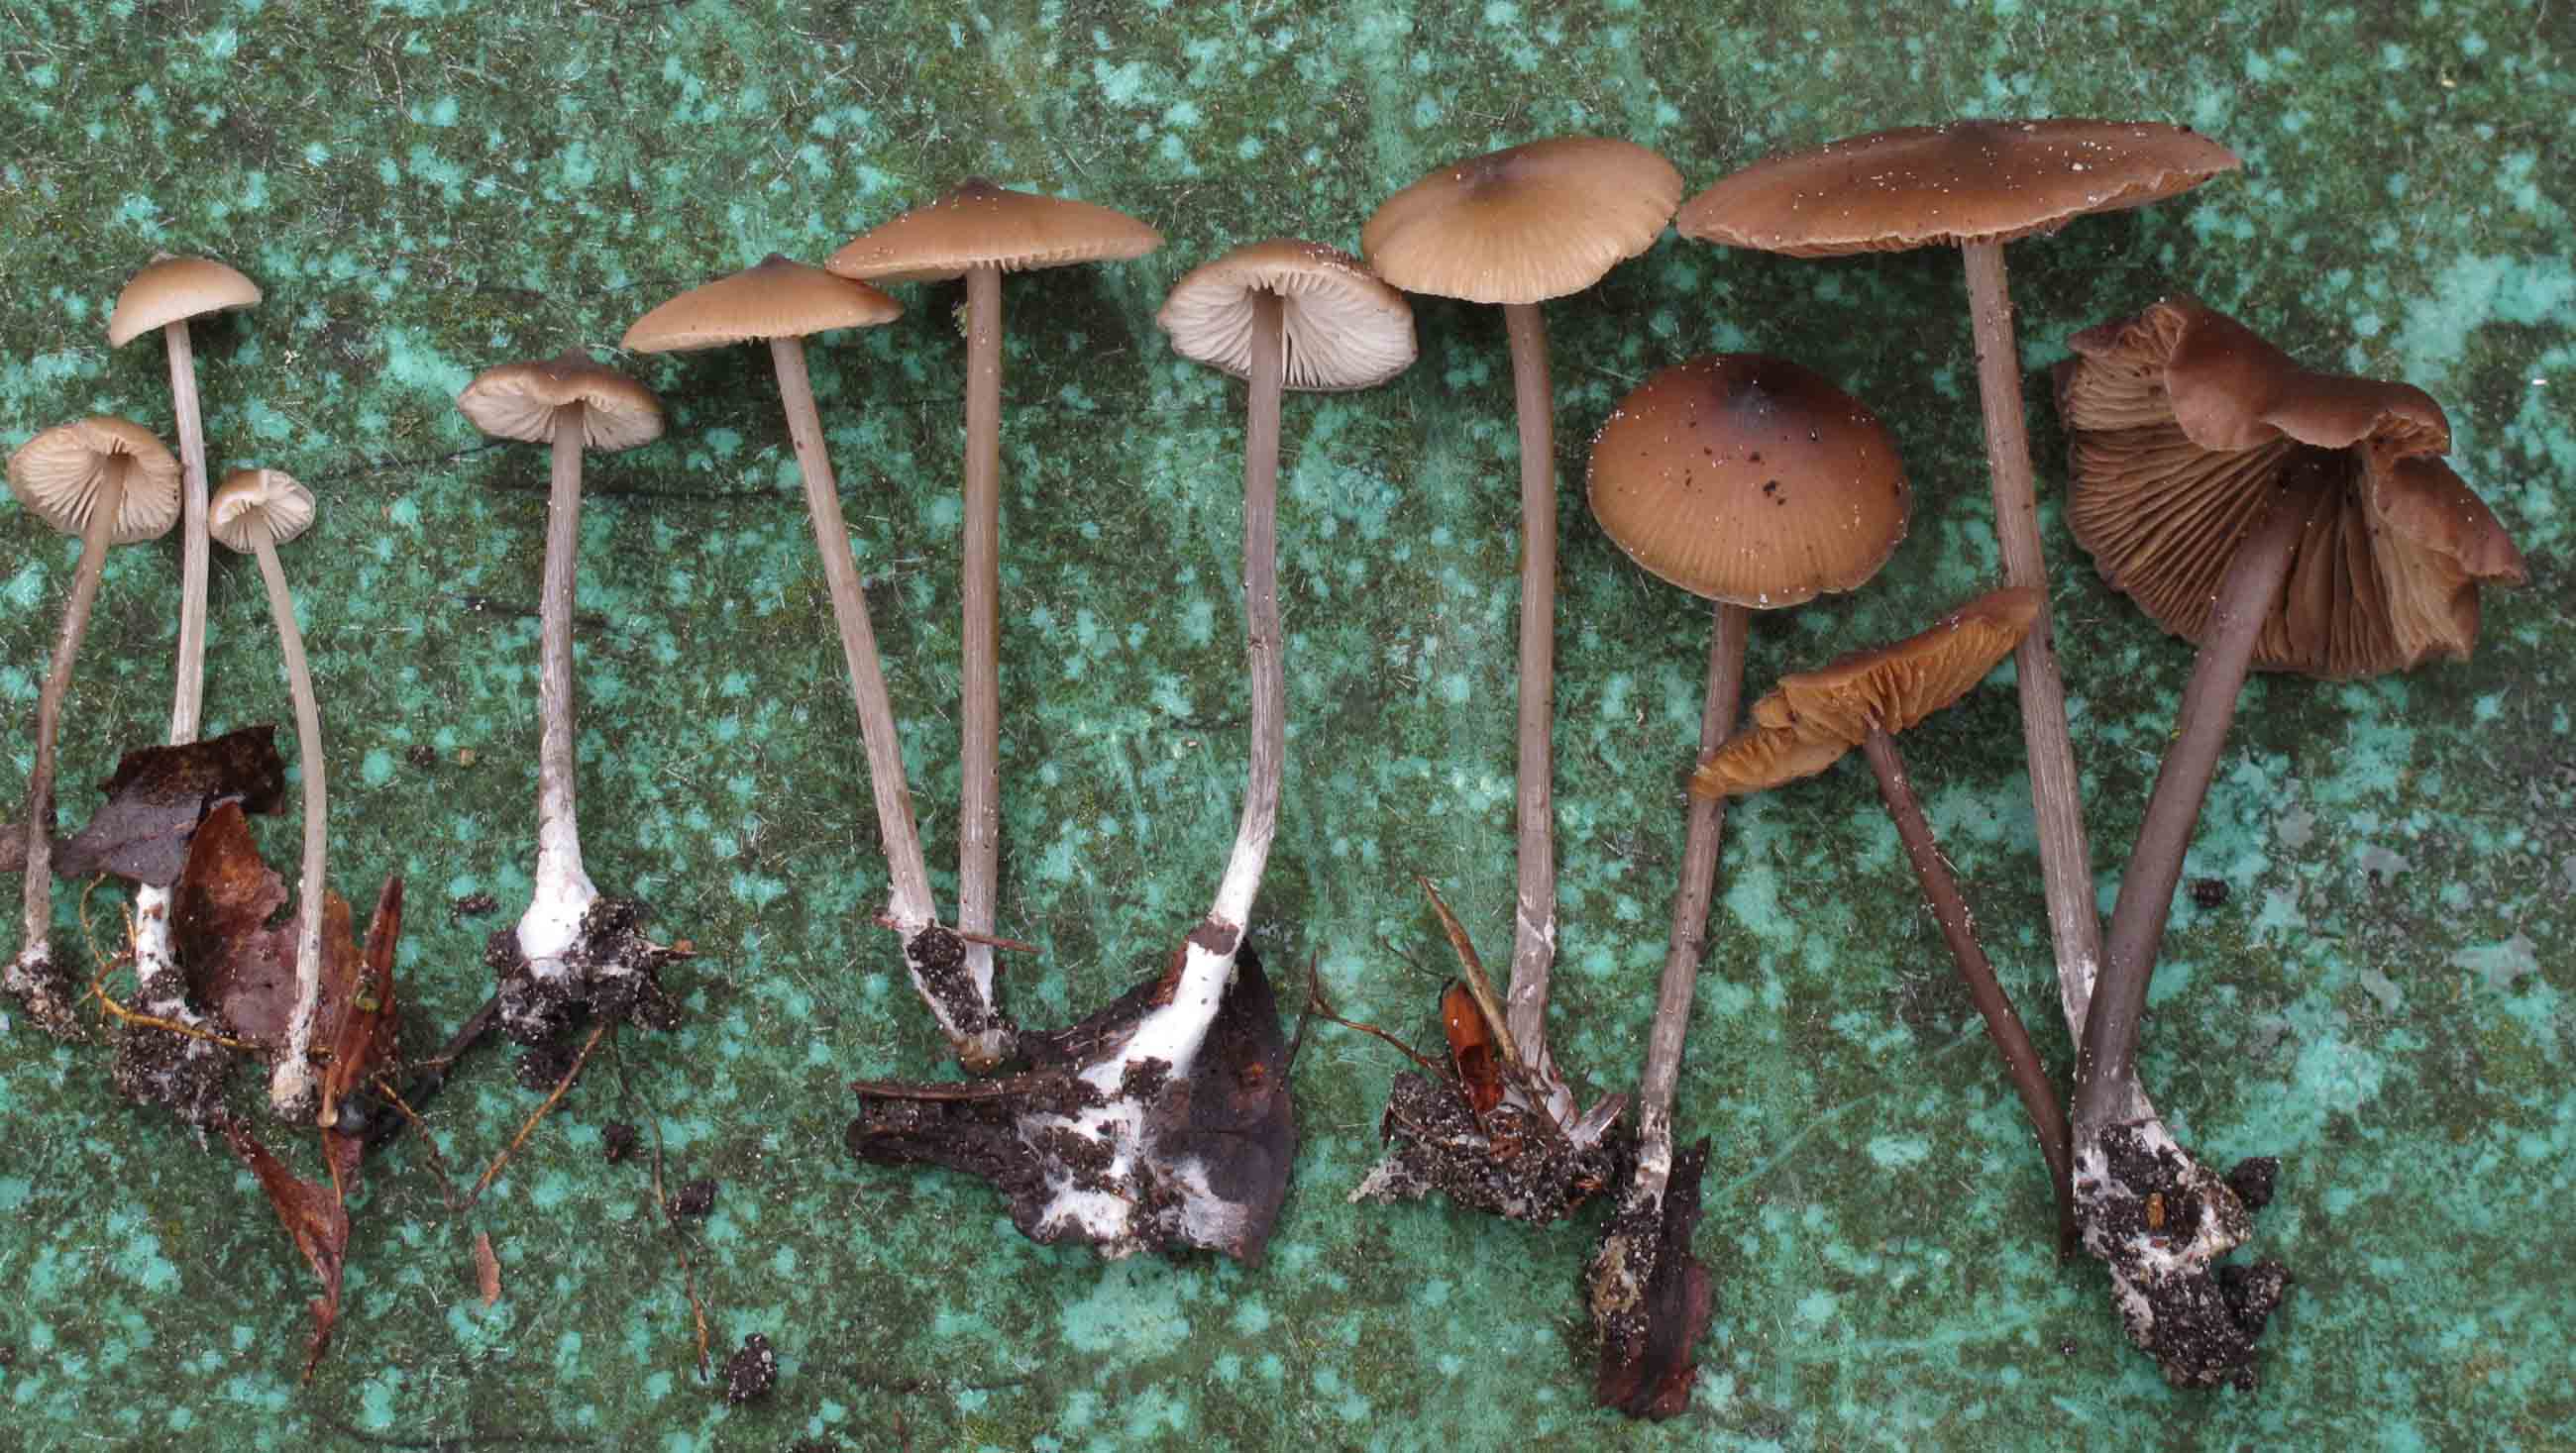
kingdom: Fungi
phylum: Basidiomycota
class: Agaricomycetes
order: Agaricales
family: Entolomataceae
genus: Entoloma
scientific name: Entoloma hebes
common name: krat-rødblad
